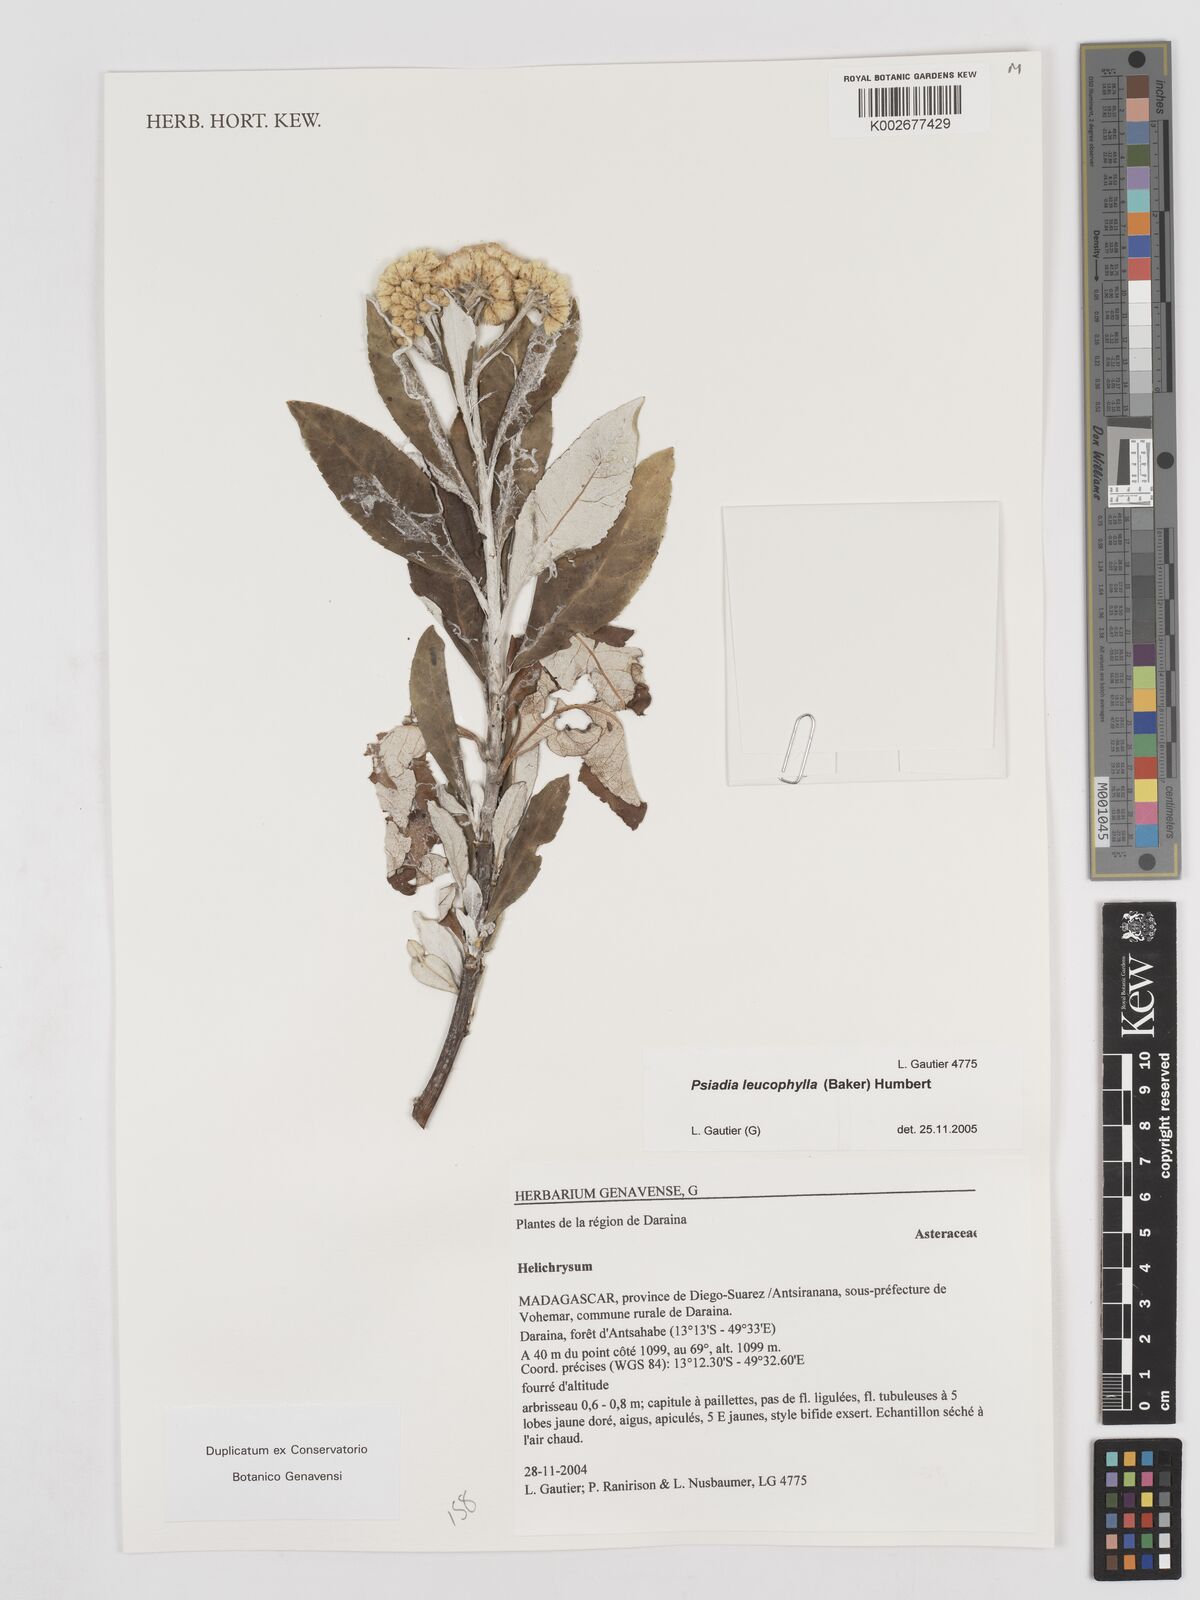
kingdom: Plantae
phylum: Tracheophyta
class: Magnoliopsida
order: Asterales
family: Asteraceae
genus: Psiadia
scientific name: Psiadia leucophylla
